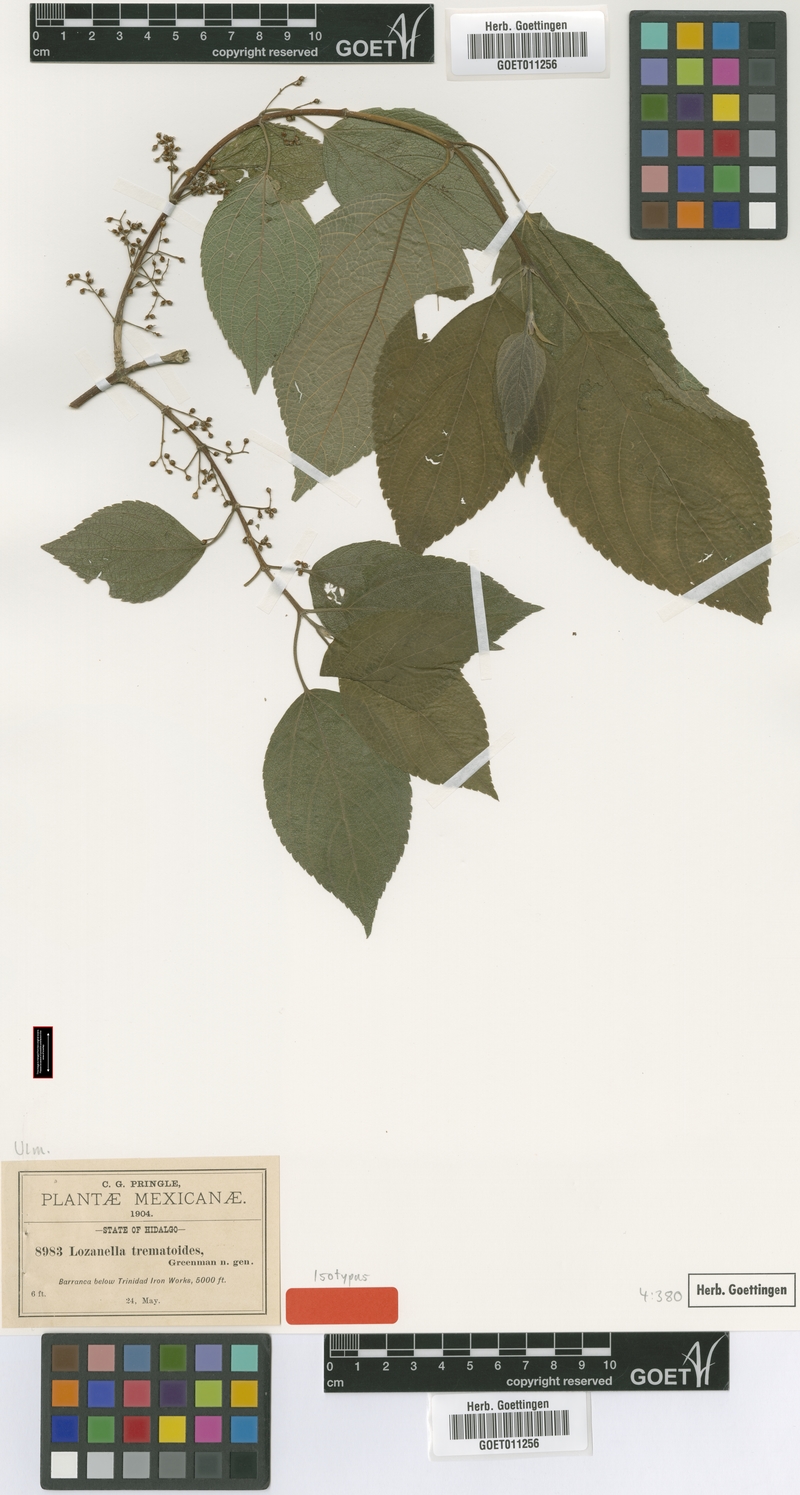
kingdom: Plantae
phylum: Tracheophyta
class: Magnoliopsida
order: Rosales
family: Cannabaceae
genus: Lozanella
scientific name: Lozanella enantiophylla
